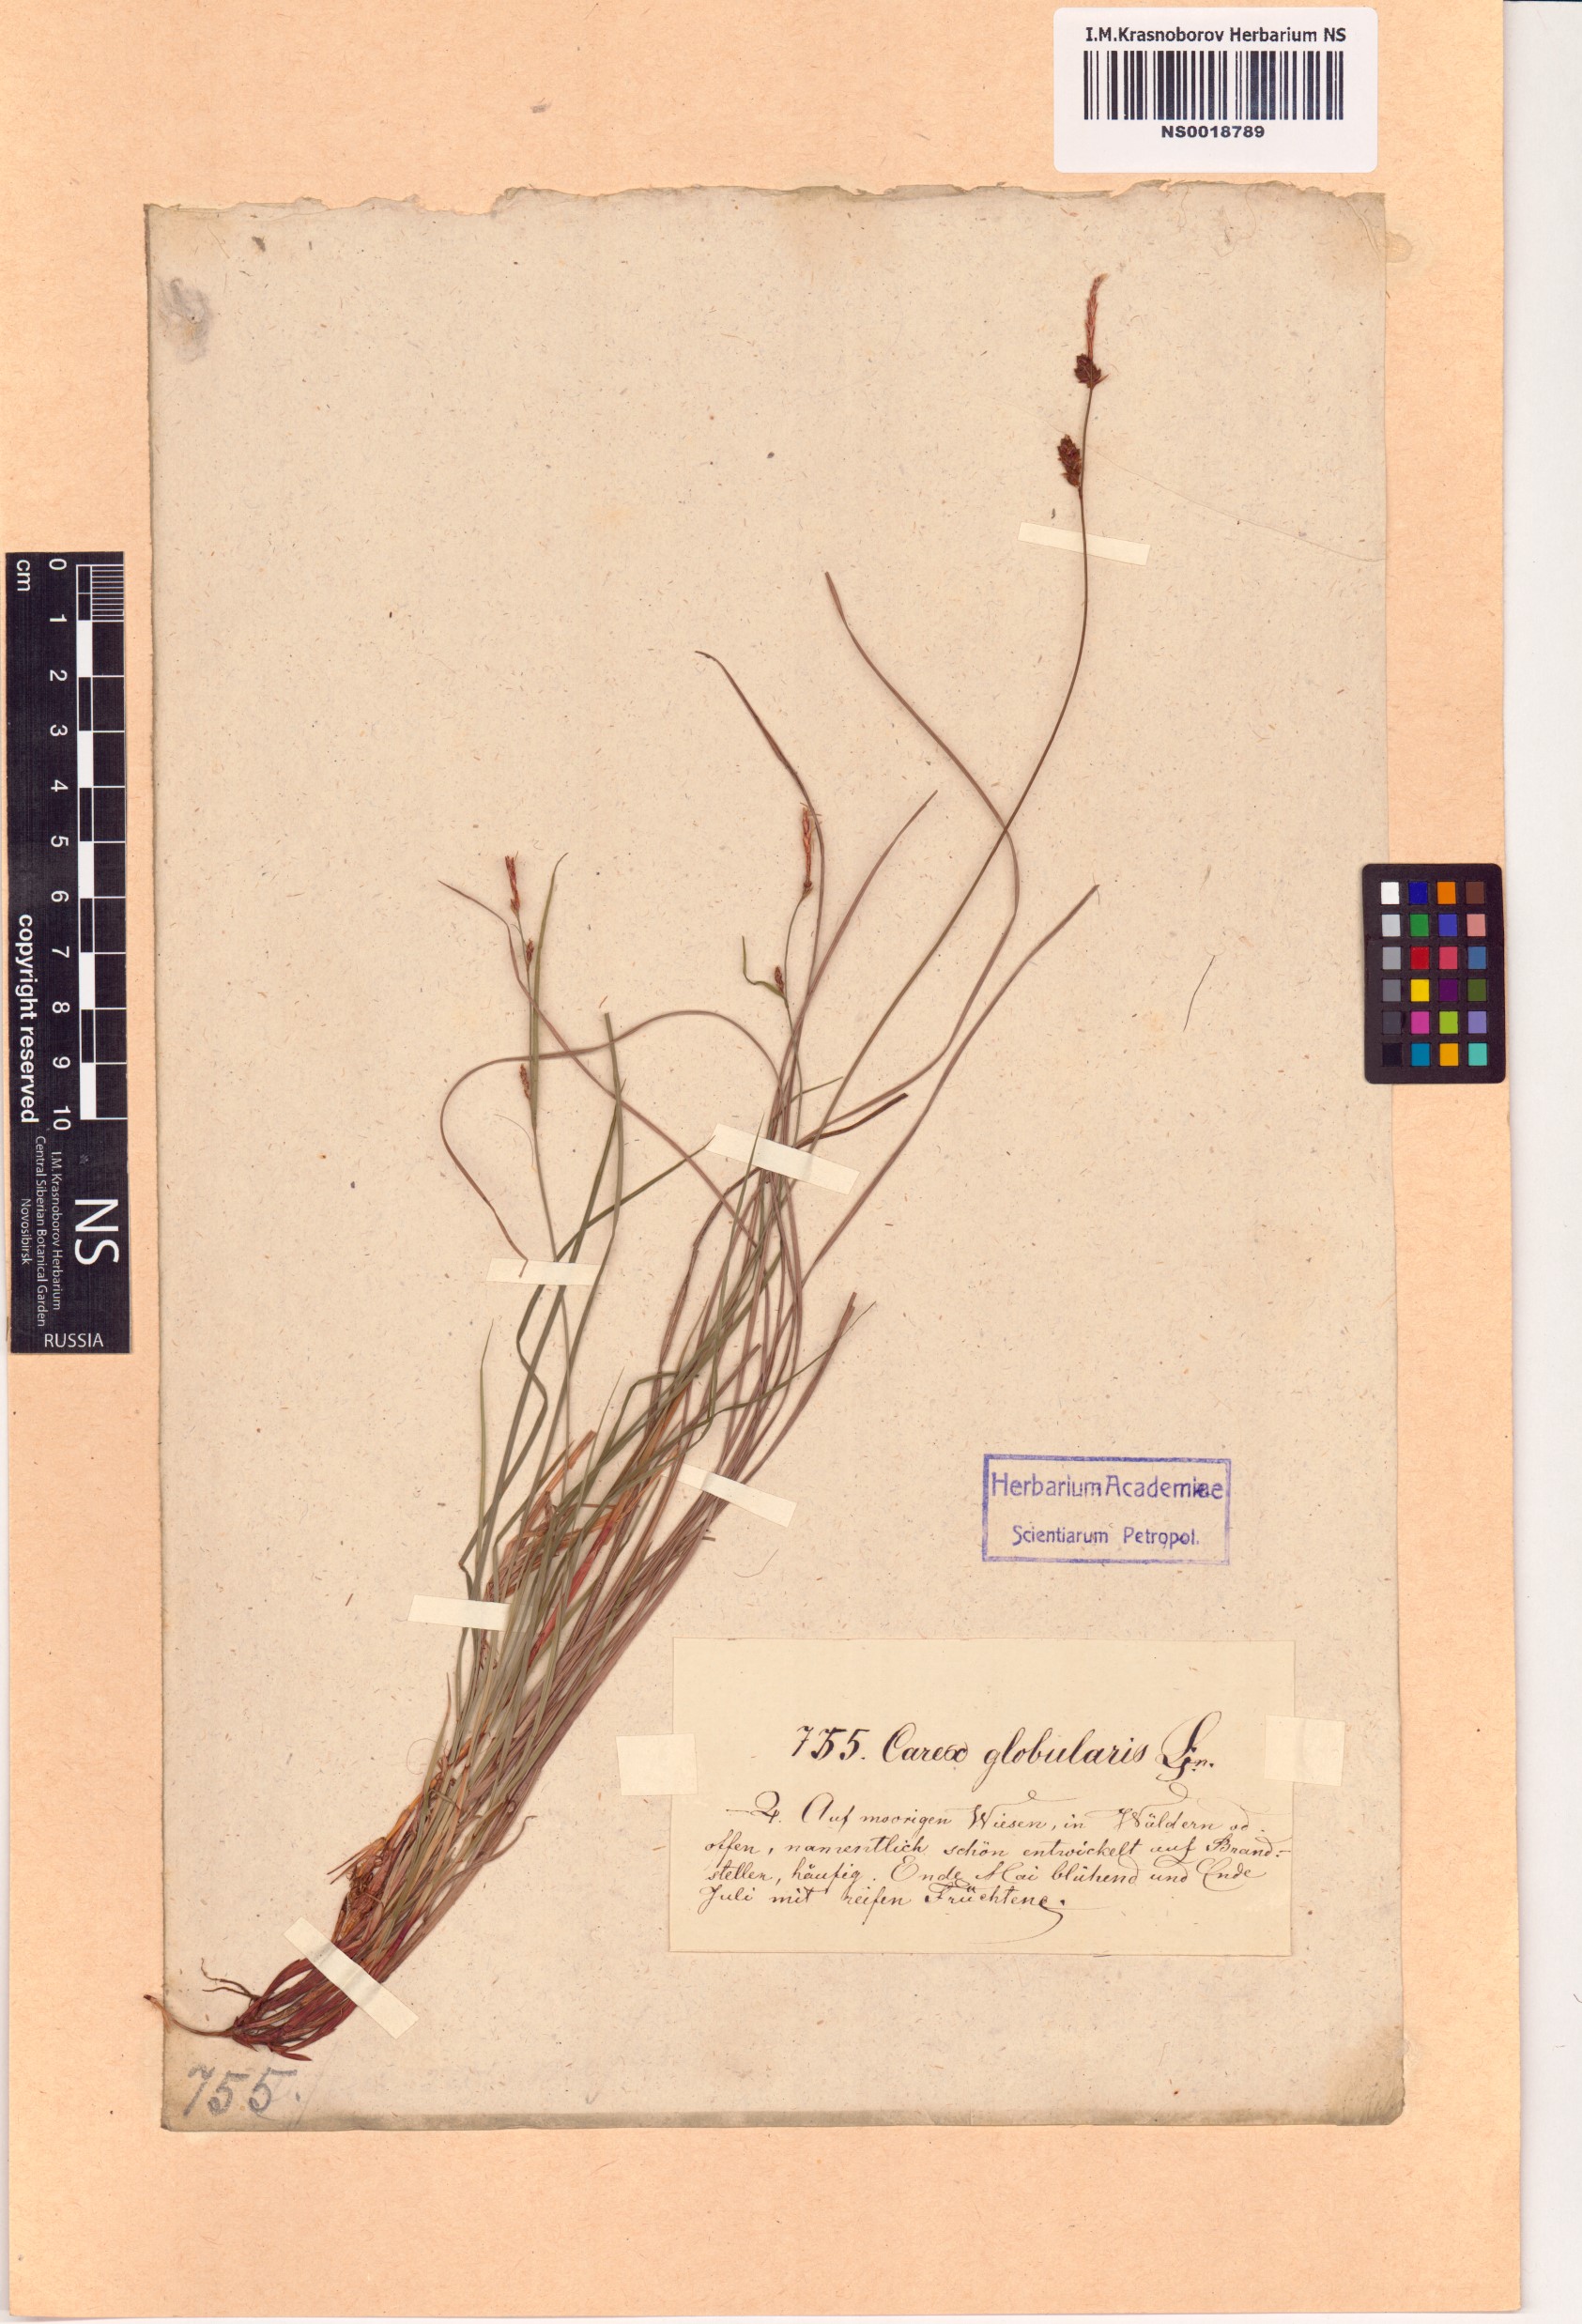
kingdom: Plantae
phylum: Tracheophyta
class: Liliopsida
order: Poales
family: Cyperaceae
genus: Carex
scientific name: Carex globularis
